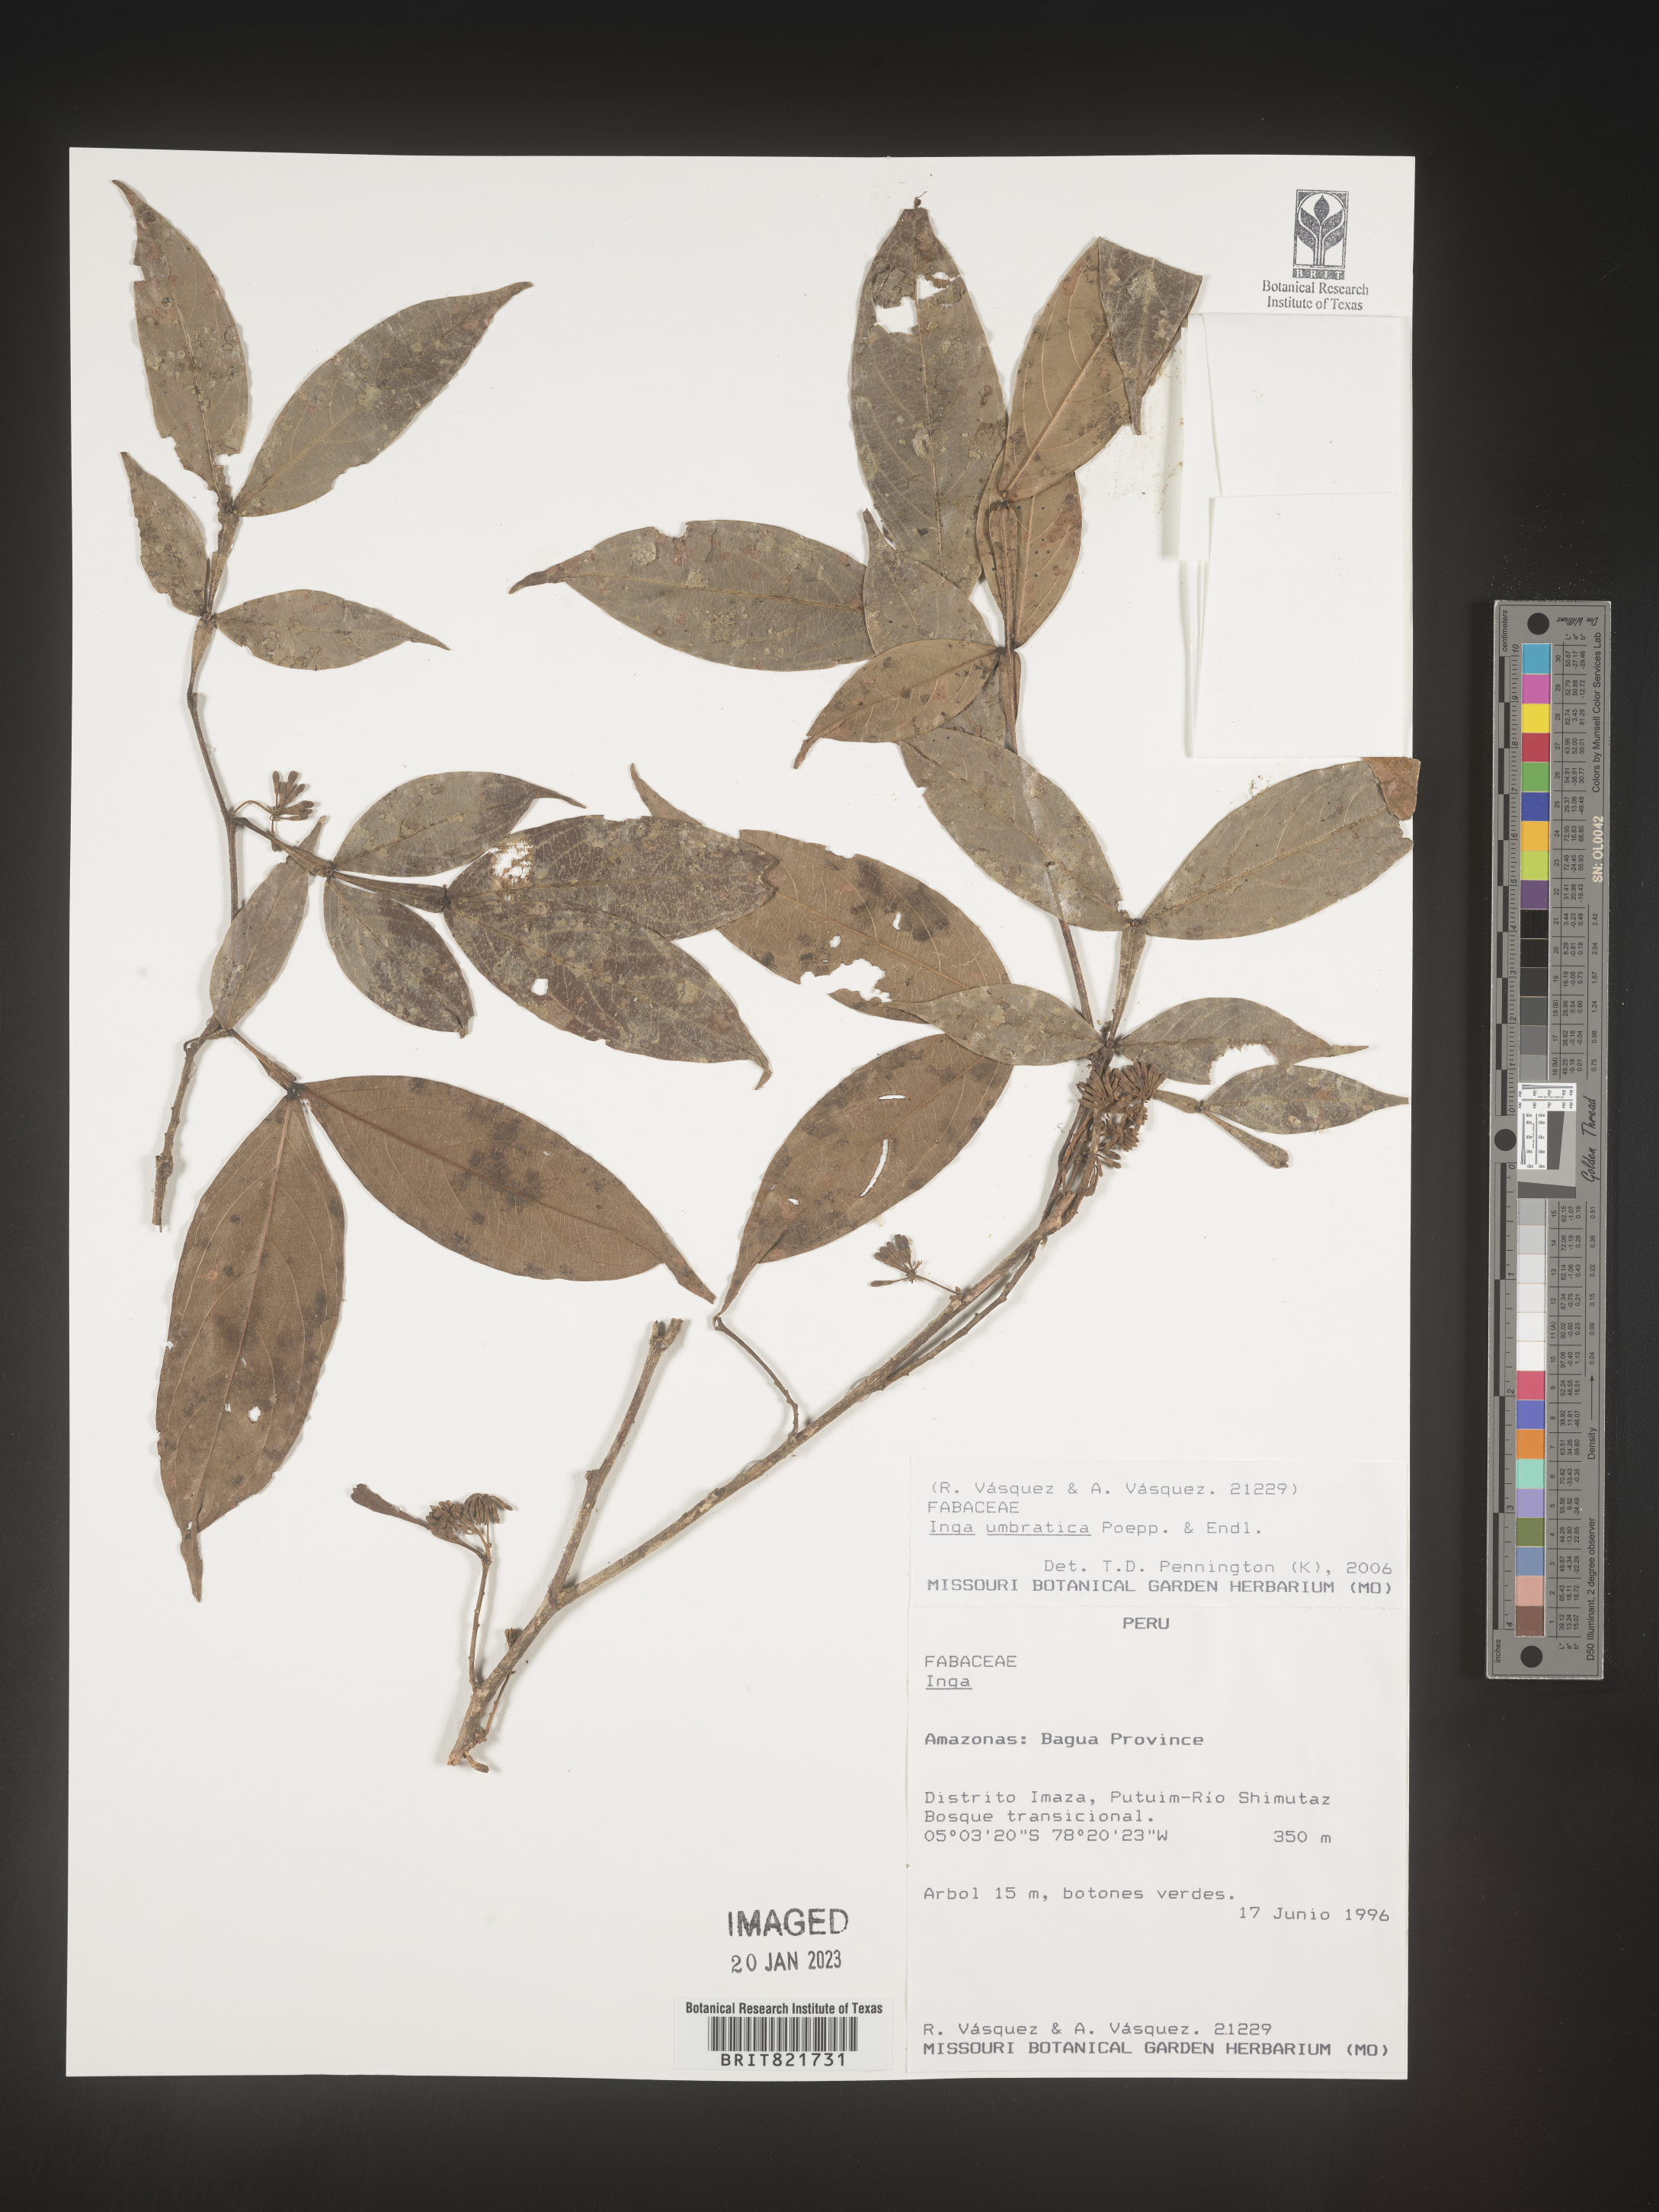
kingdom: Plantae
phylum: Tracheophyta
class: Magnoliopsida
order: Fabales
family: Fabaceae
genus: Inga
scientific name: Inga
